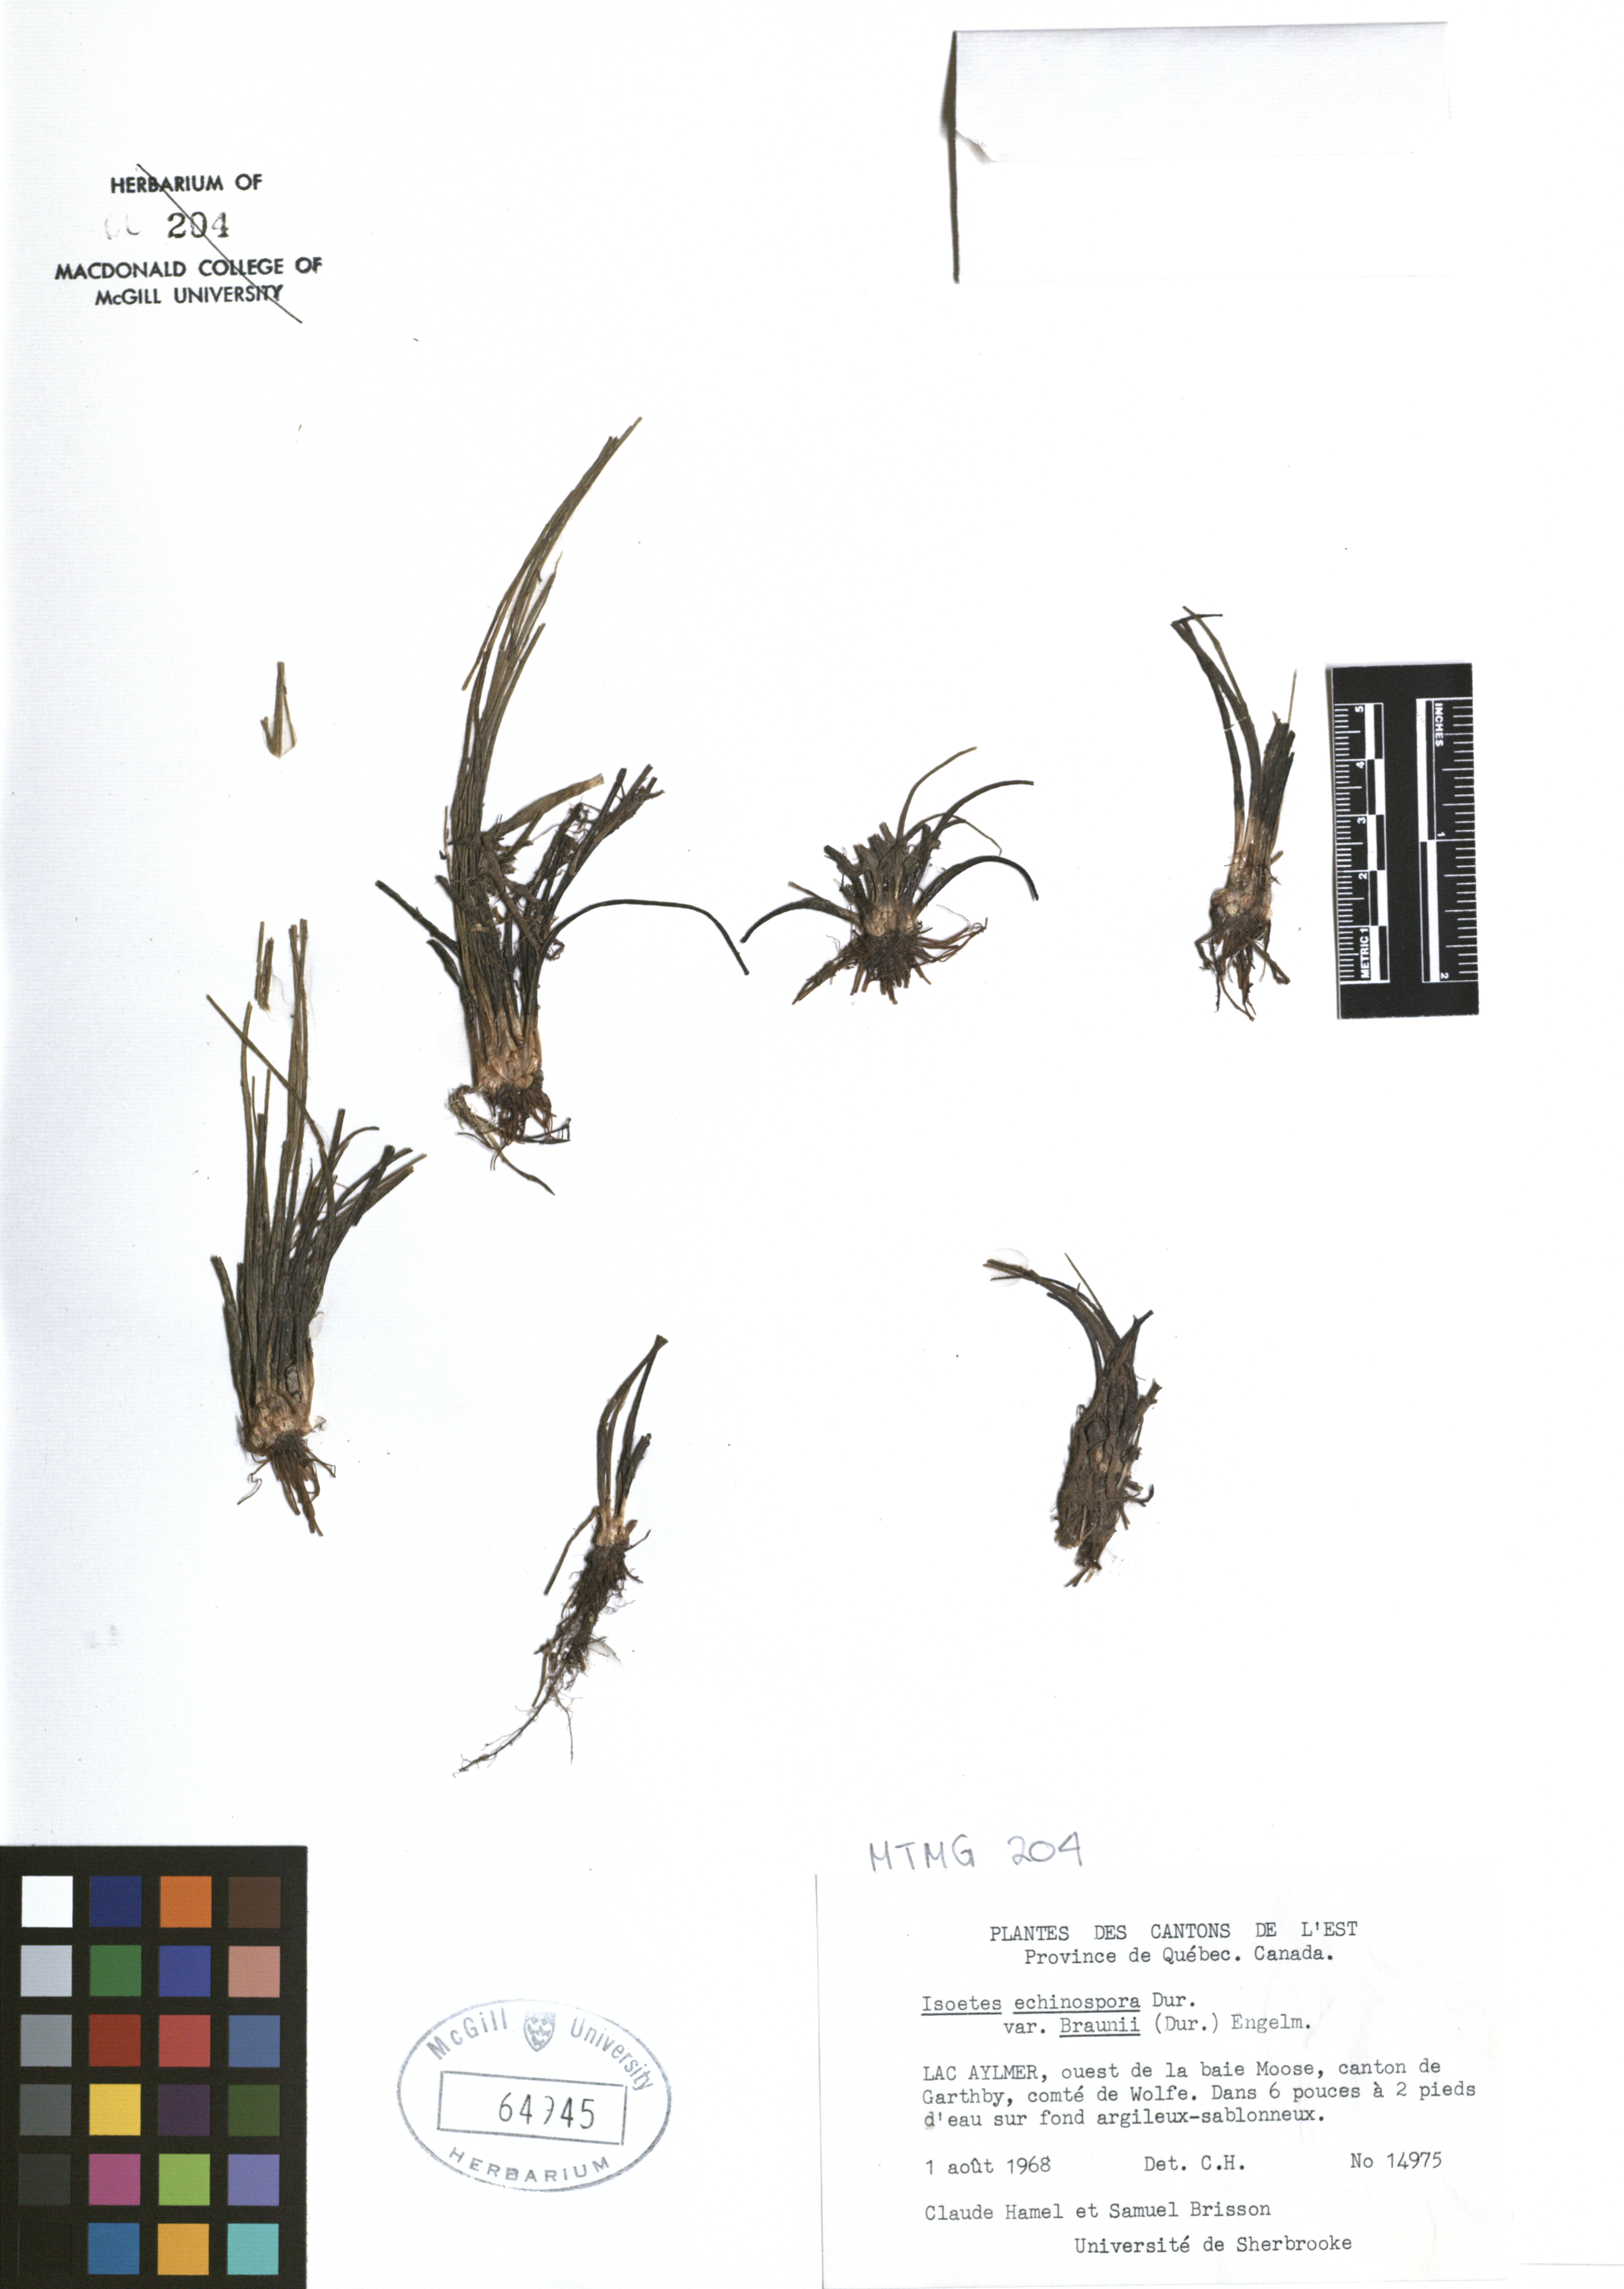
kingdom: Plantae
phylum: Tracheophyta
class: Magnoliopsida
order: Apiales
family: Apiaceae
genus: Sanicula
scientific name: Sanicula marilandica
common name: Black snakeroot
